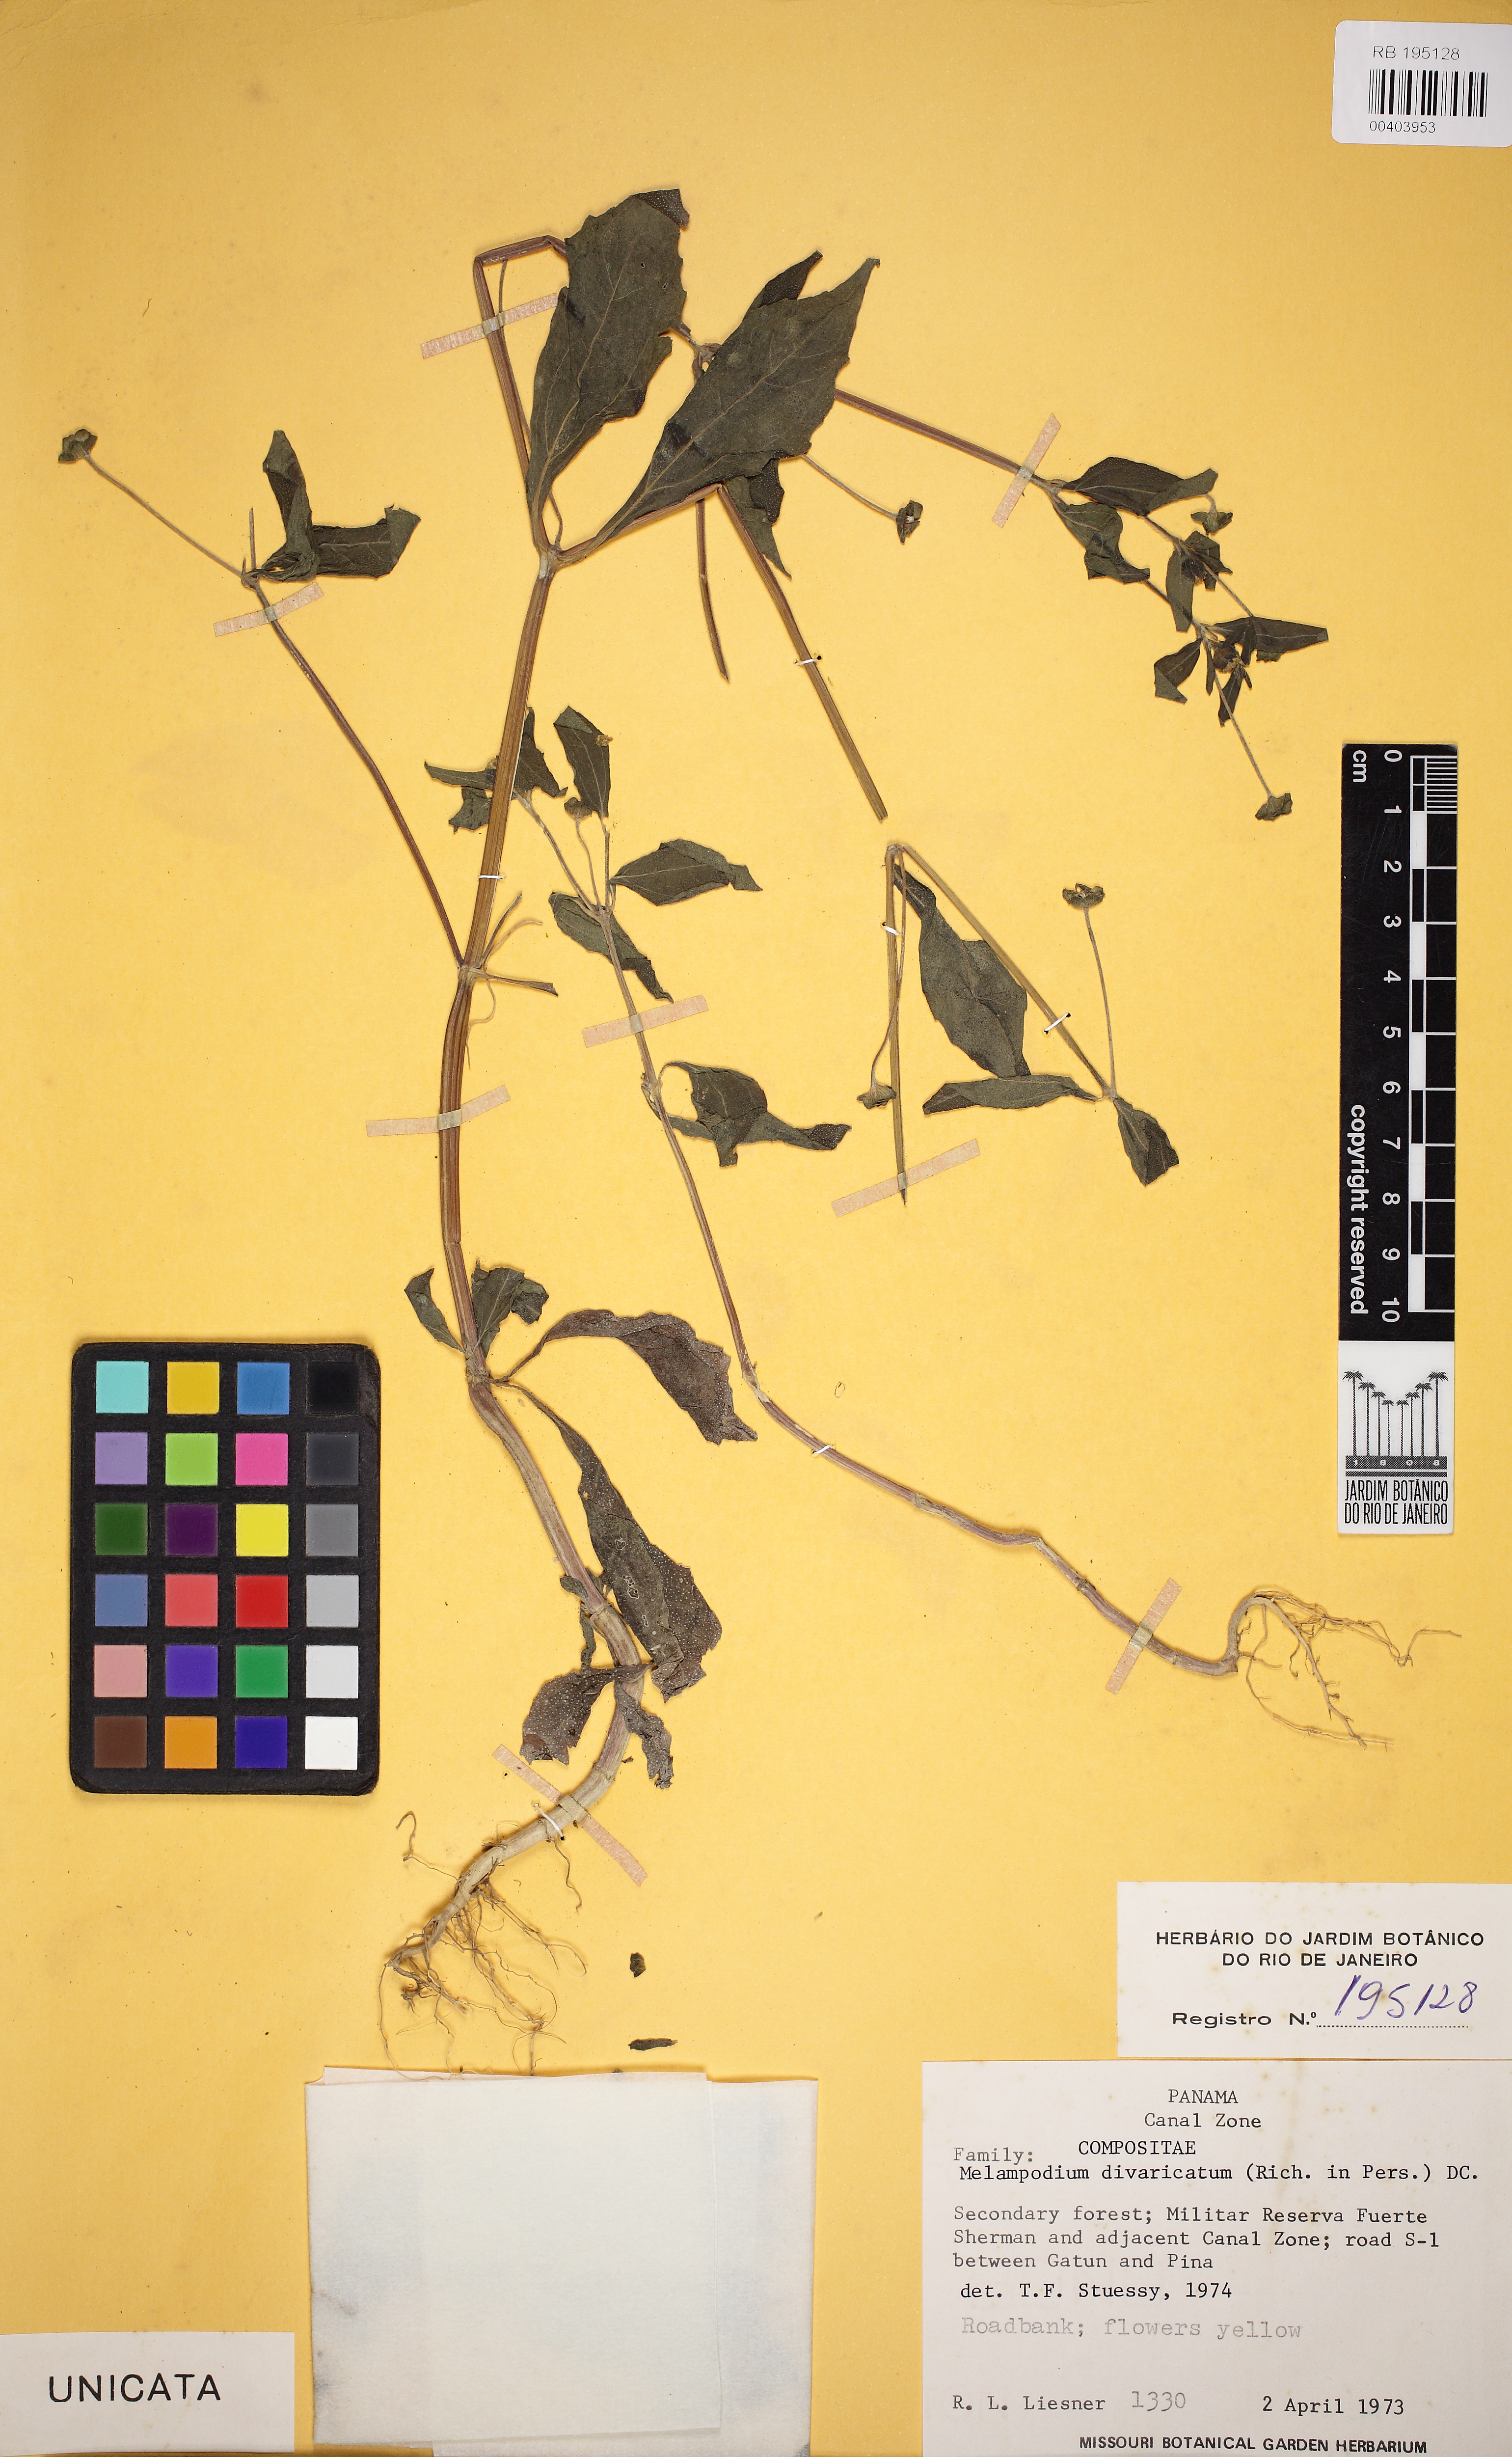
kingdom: Plantae
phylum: Tracheophyta
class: Magnoliopsida
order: Asterales
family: Asteraceae
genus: Melampodium
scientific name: Melampodium divaricatum
